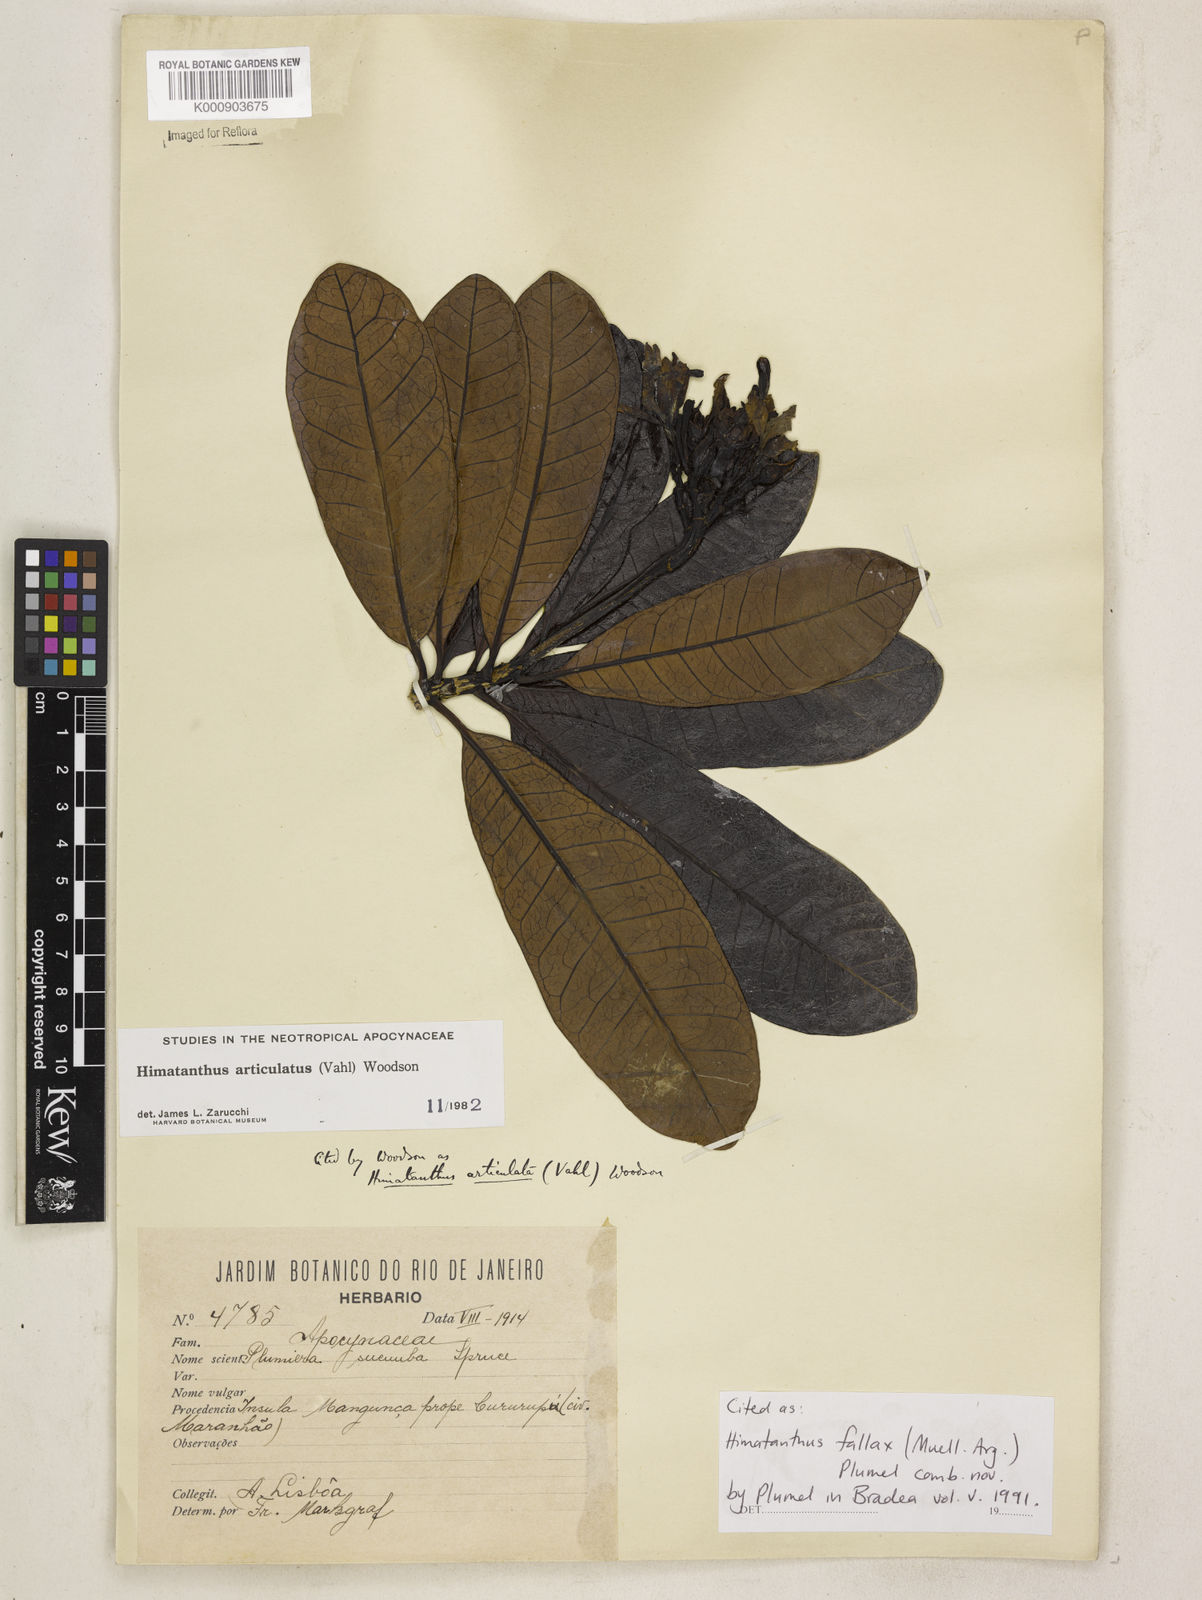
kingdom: Plantae
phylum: Tracheophyta
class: Magnoliopsida
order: Gentianales
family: Apocynaceae
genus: Himatanthus
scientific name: Himatanthus
